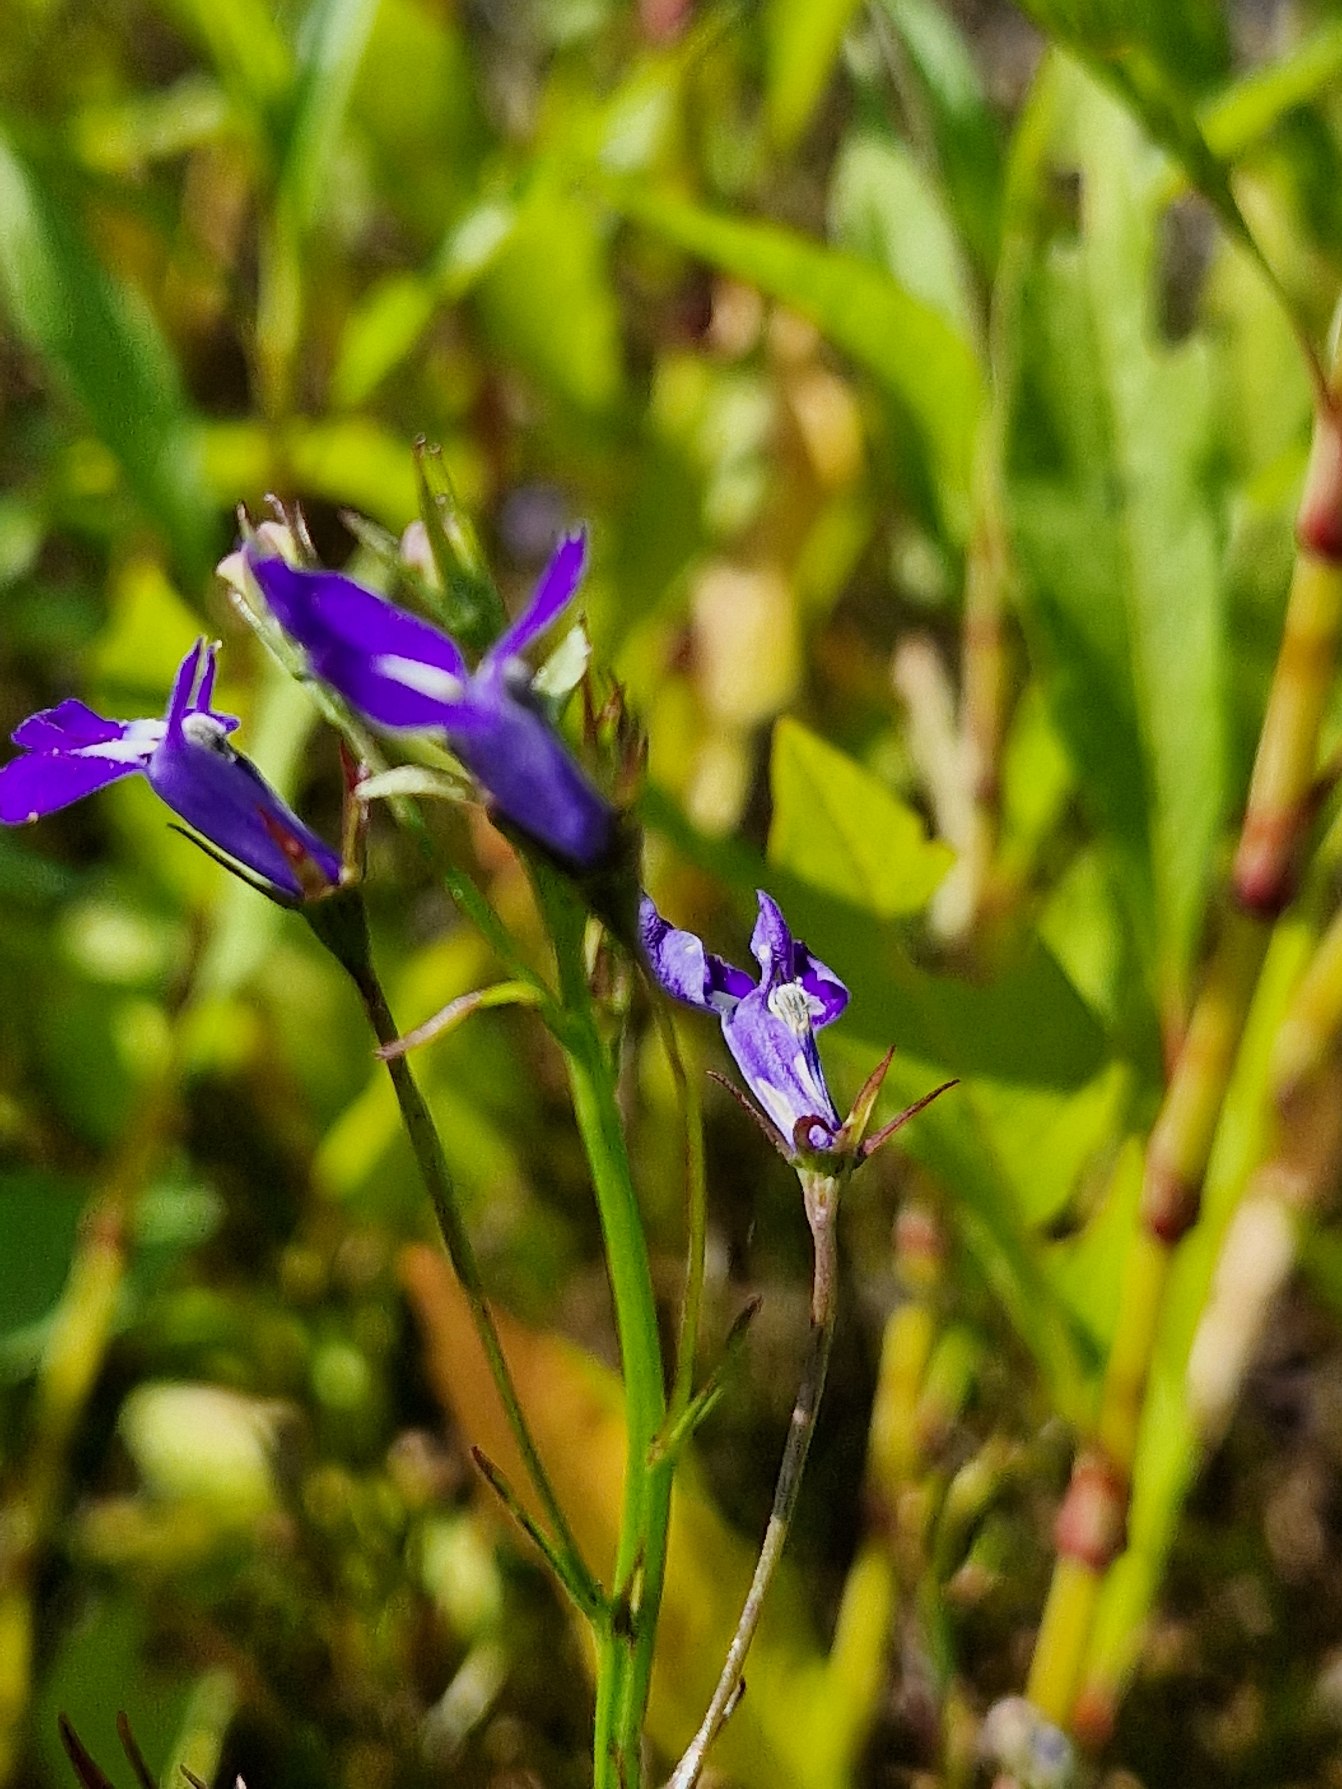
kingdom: Plantae
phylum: Tracheophyta
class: Magnoliopsida
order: Asterales
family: Campanulaceae
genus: Lobelia
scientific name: Lobelia erinus
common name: Kant-lobelie
